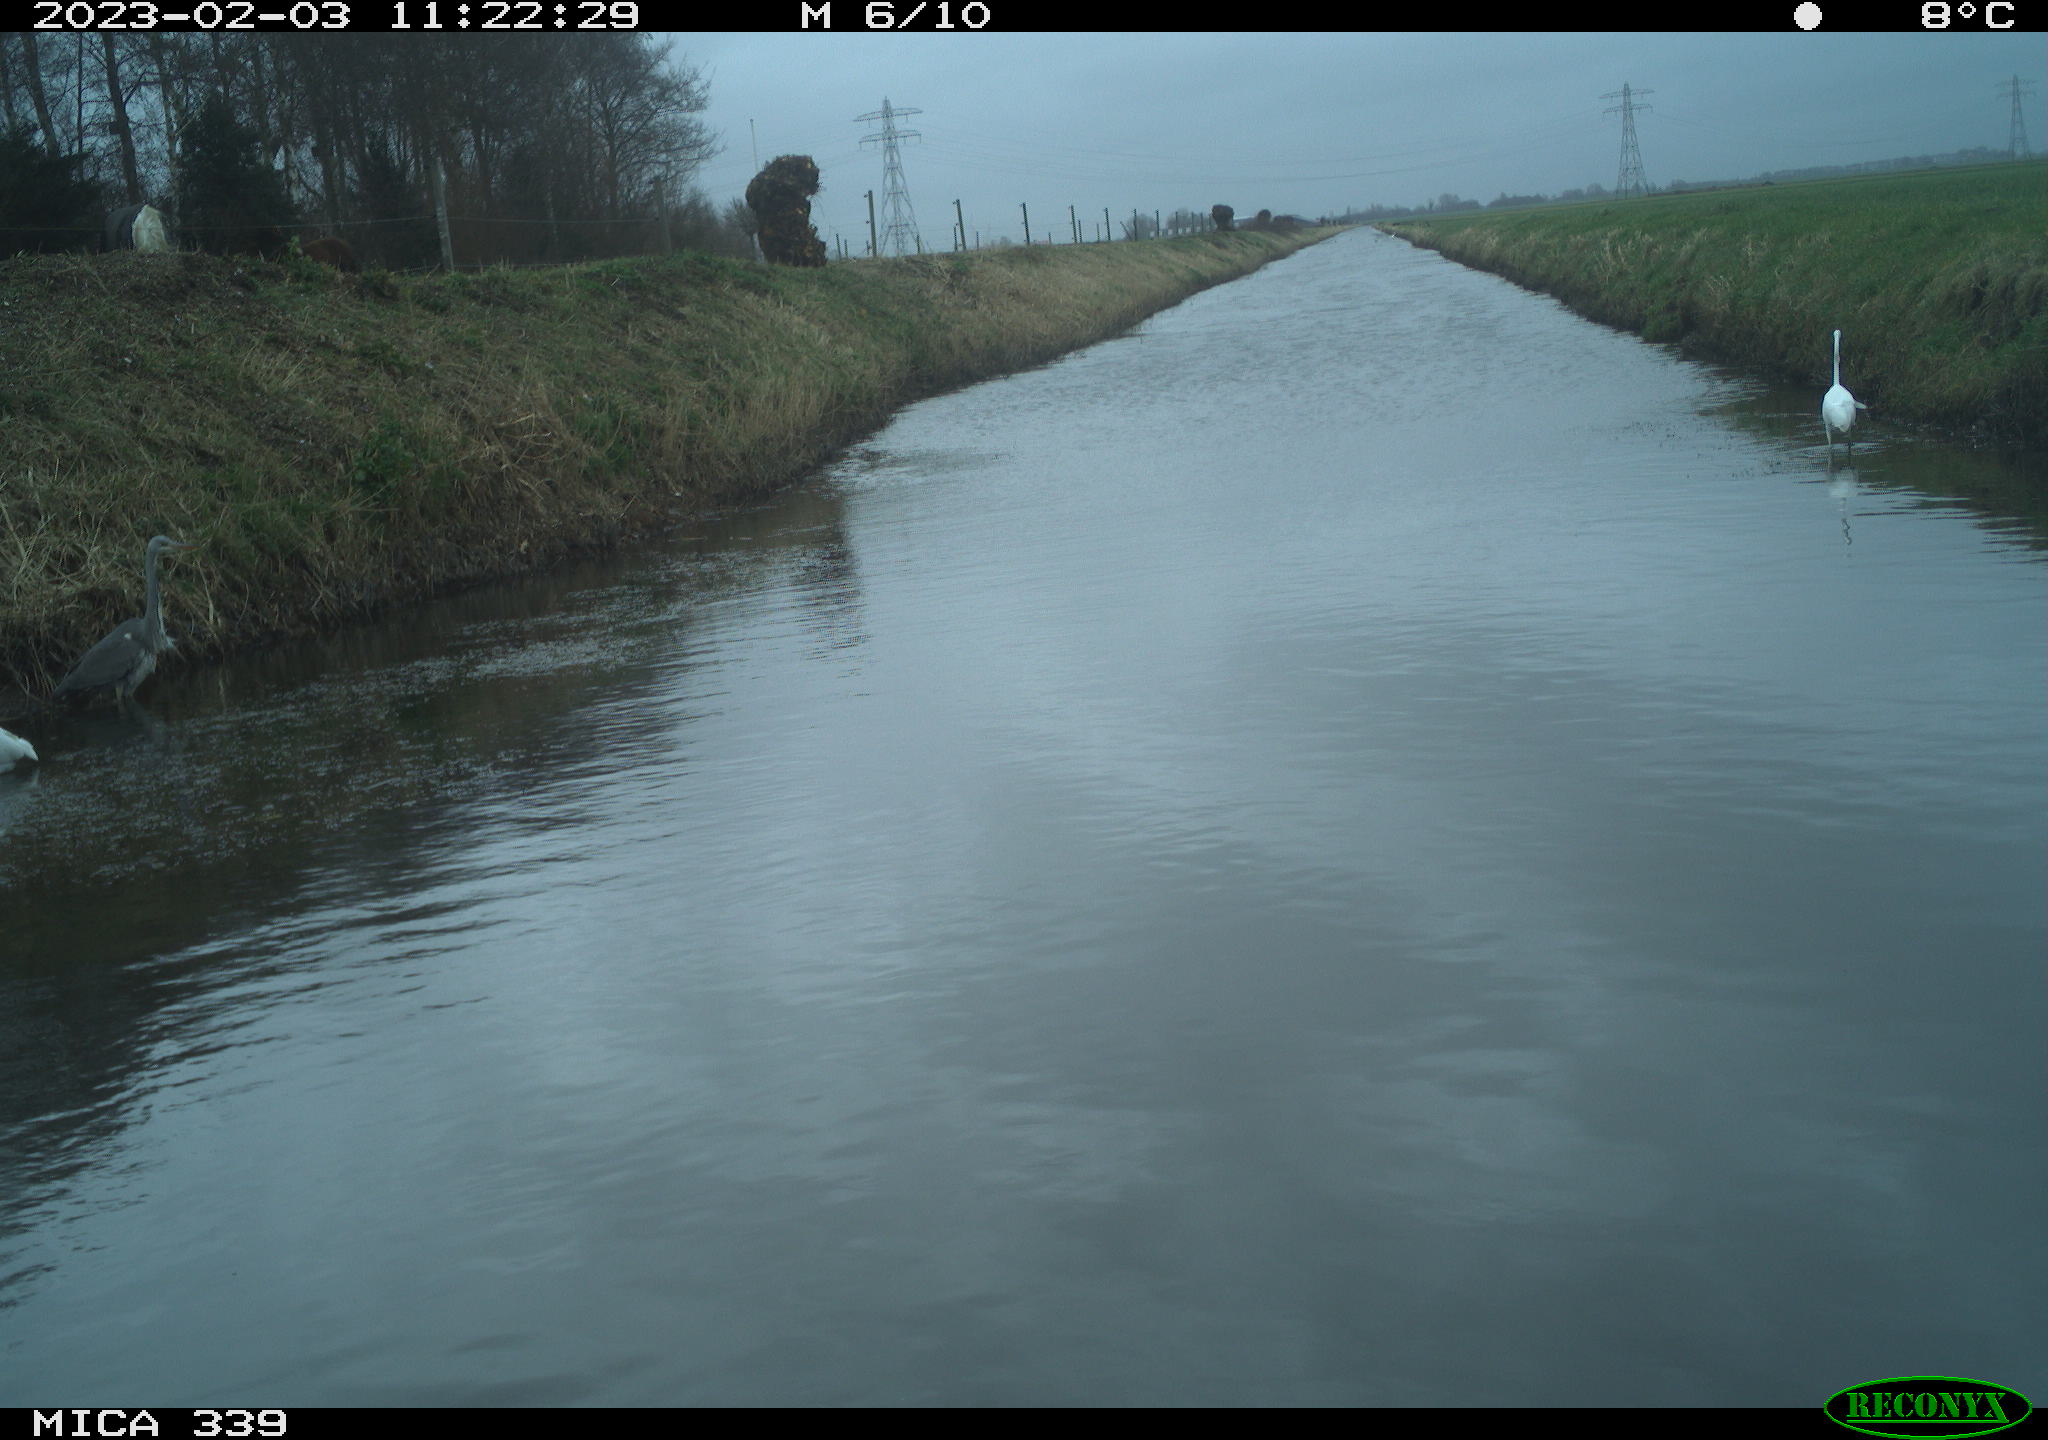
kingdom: Animalia
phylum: Chordata
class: Aves
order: Pelecaniformes
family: Ardeidae
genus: Ardea
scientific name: Ardea cinerea
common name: Grey heron
